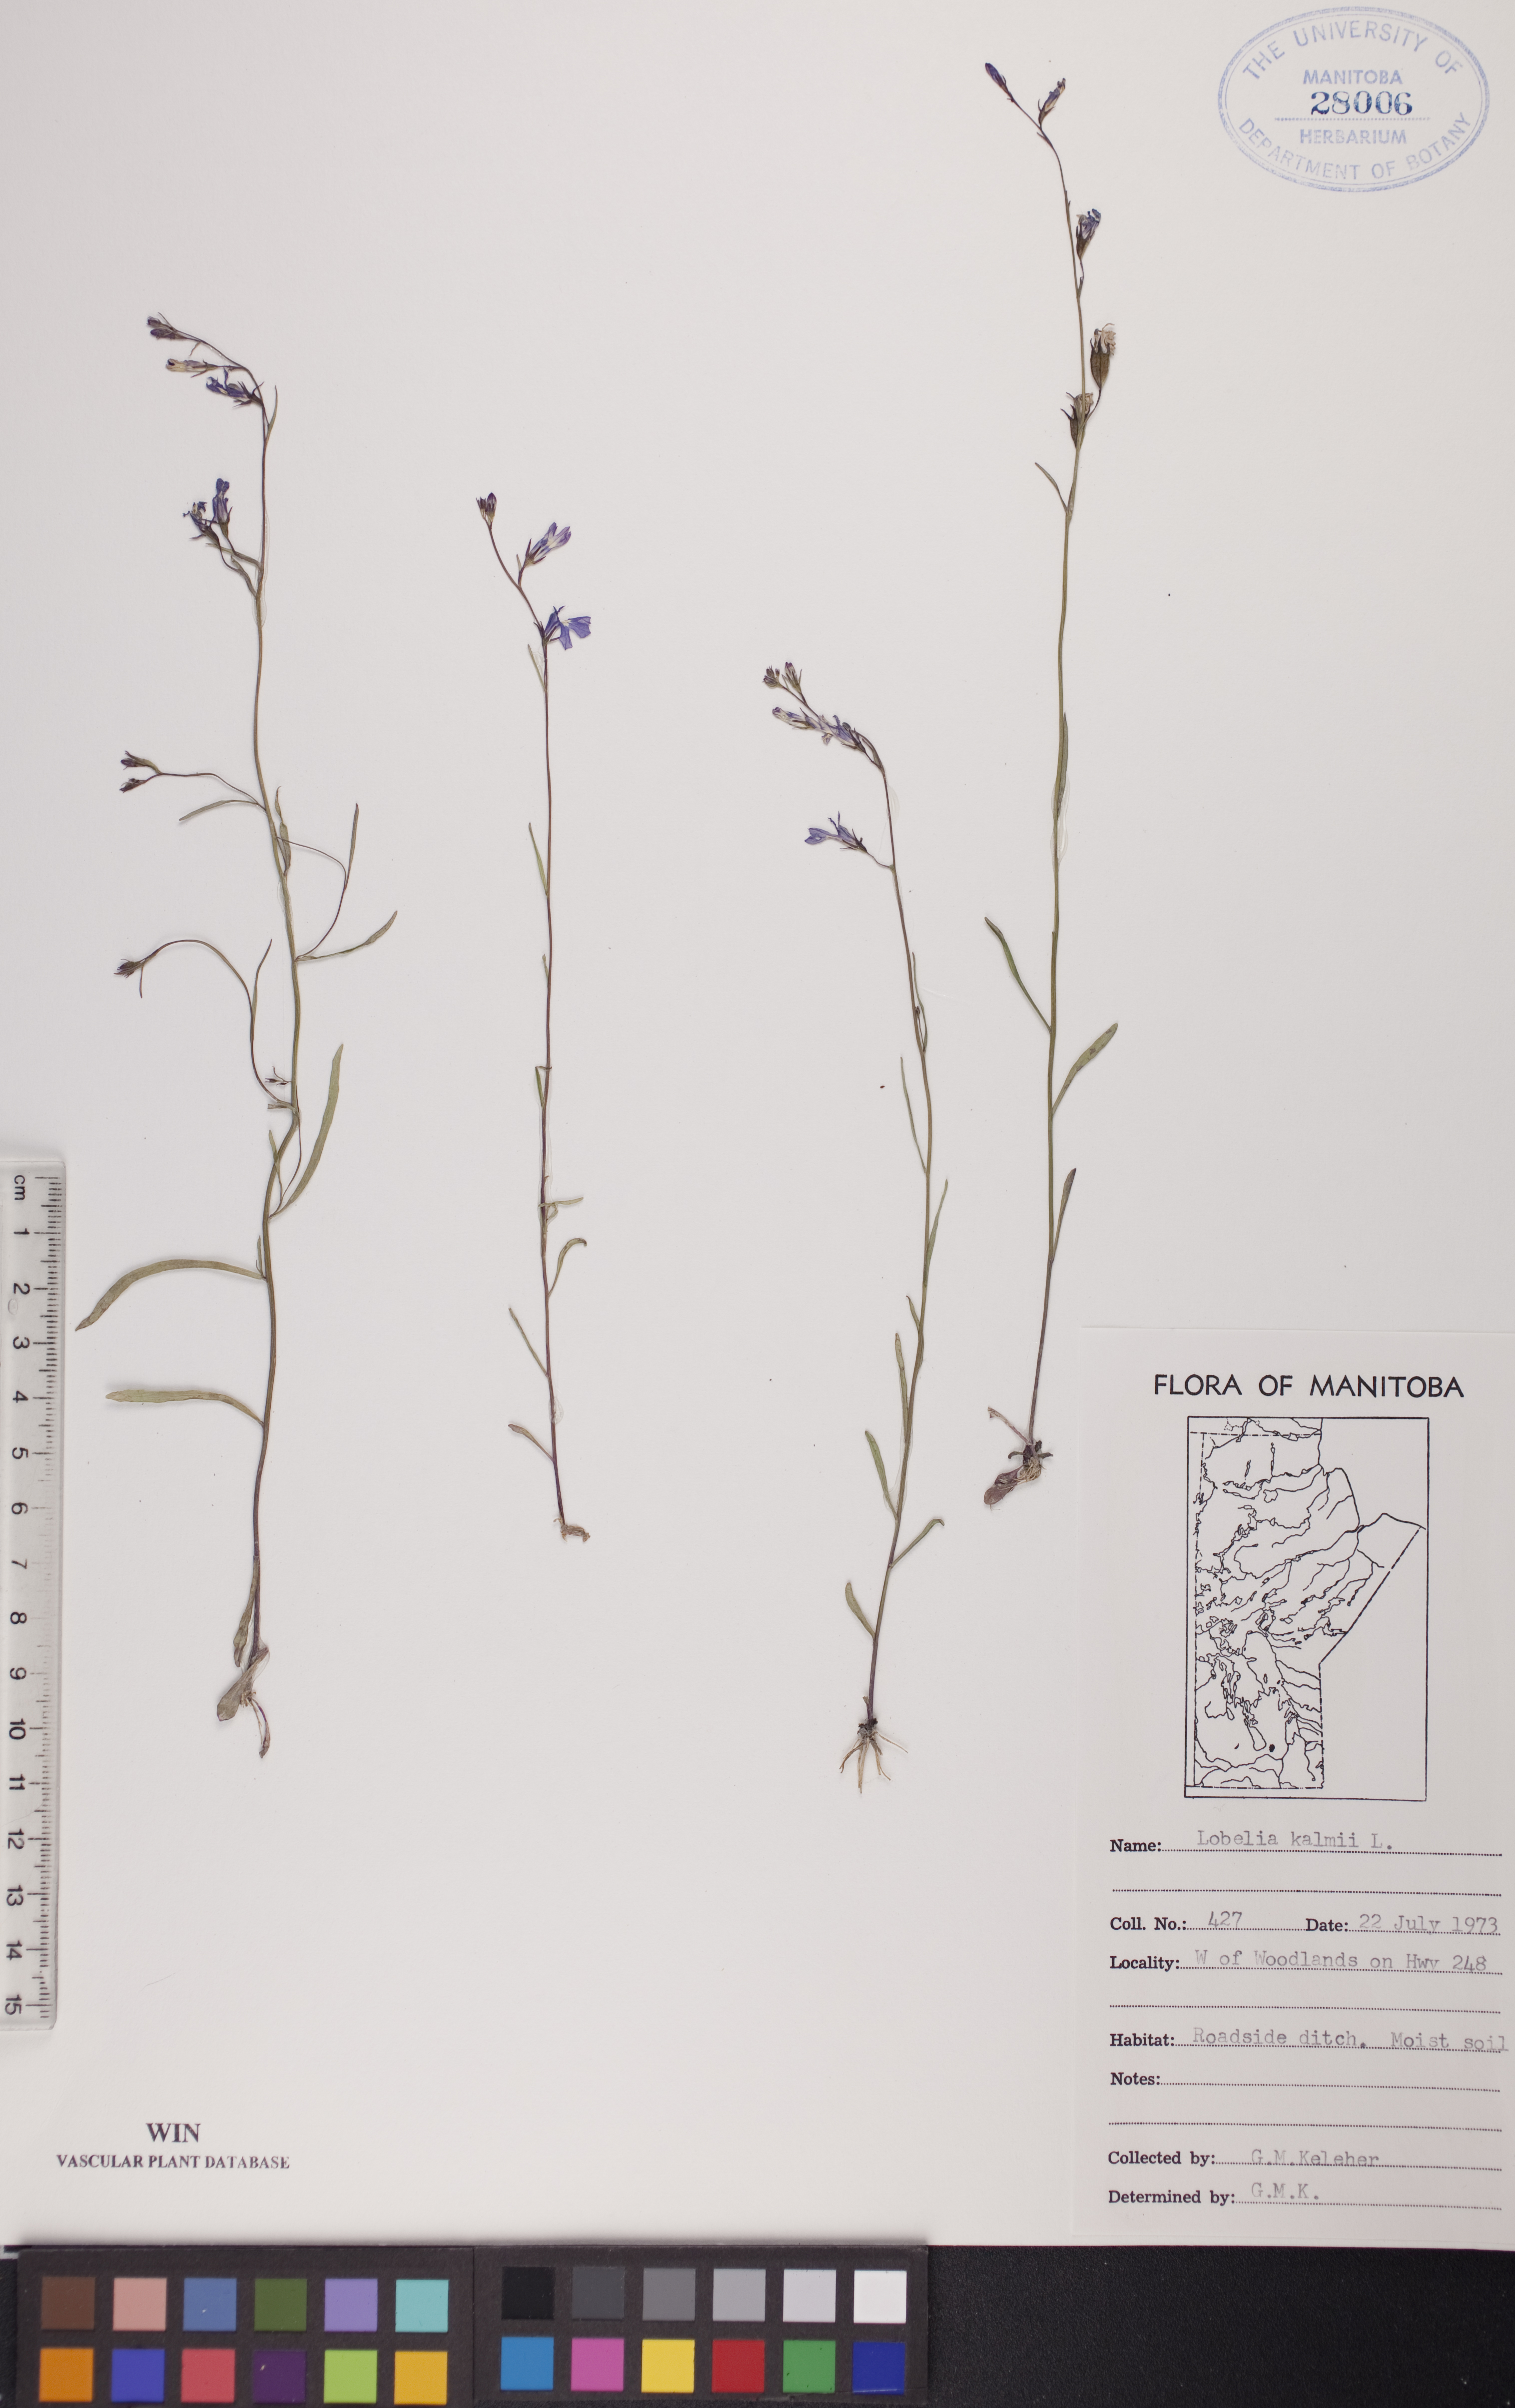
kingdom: Plantae
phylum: Tracheophyta
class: Magnoliopsida
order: Asterales
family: Campanulaceae
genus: Lobelia
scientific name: Lobelia kalmii
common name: Kalm's lobelia
